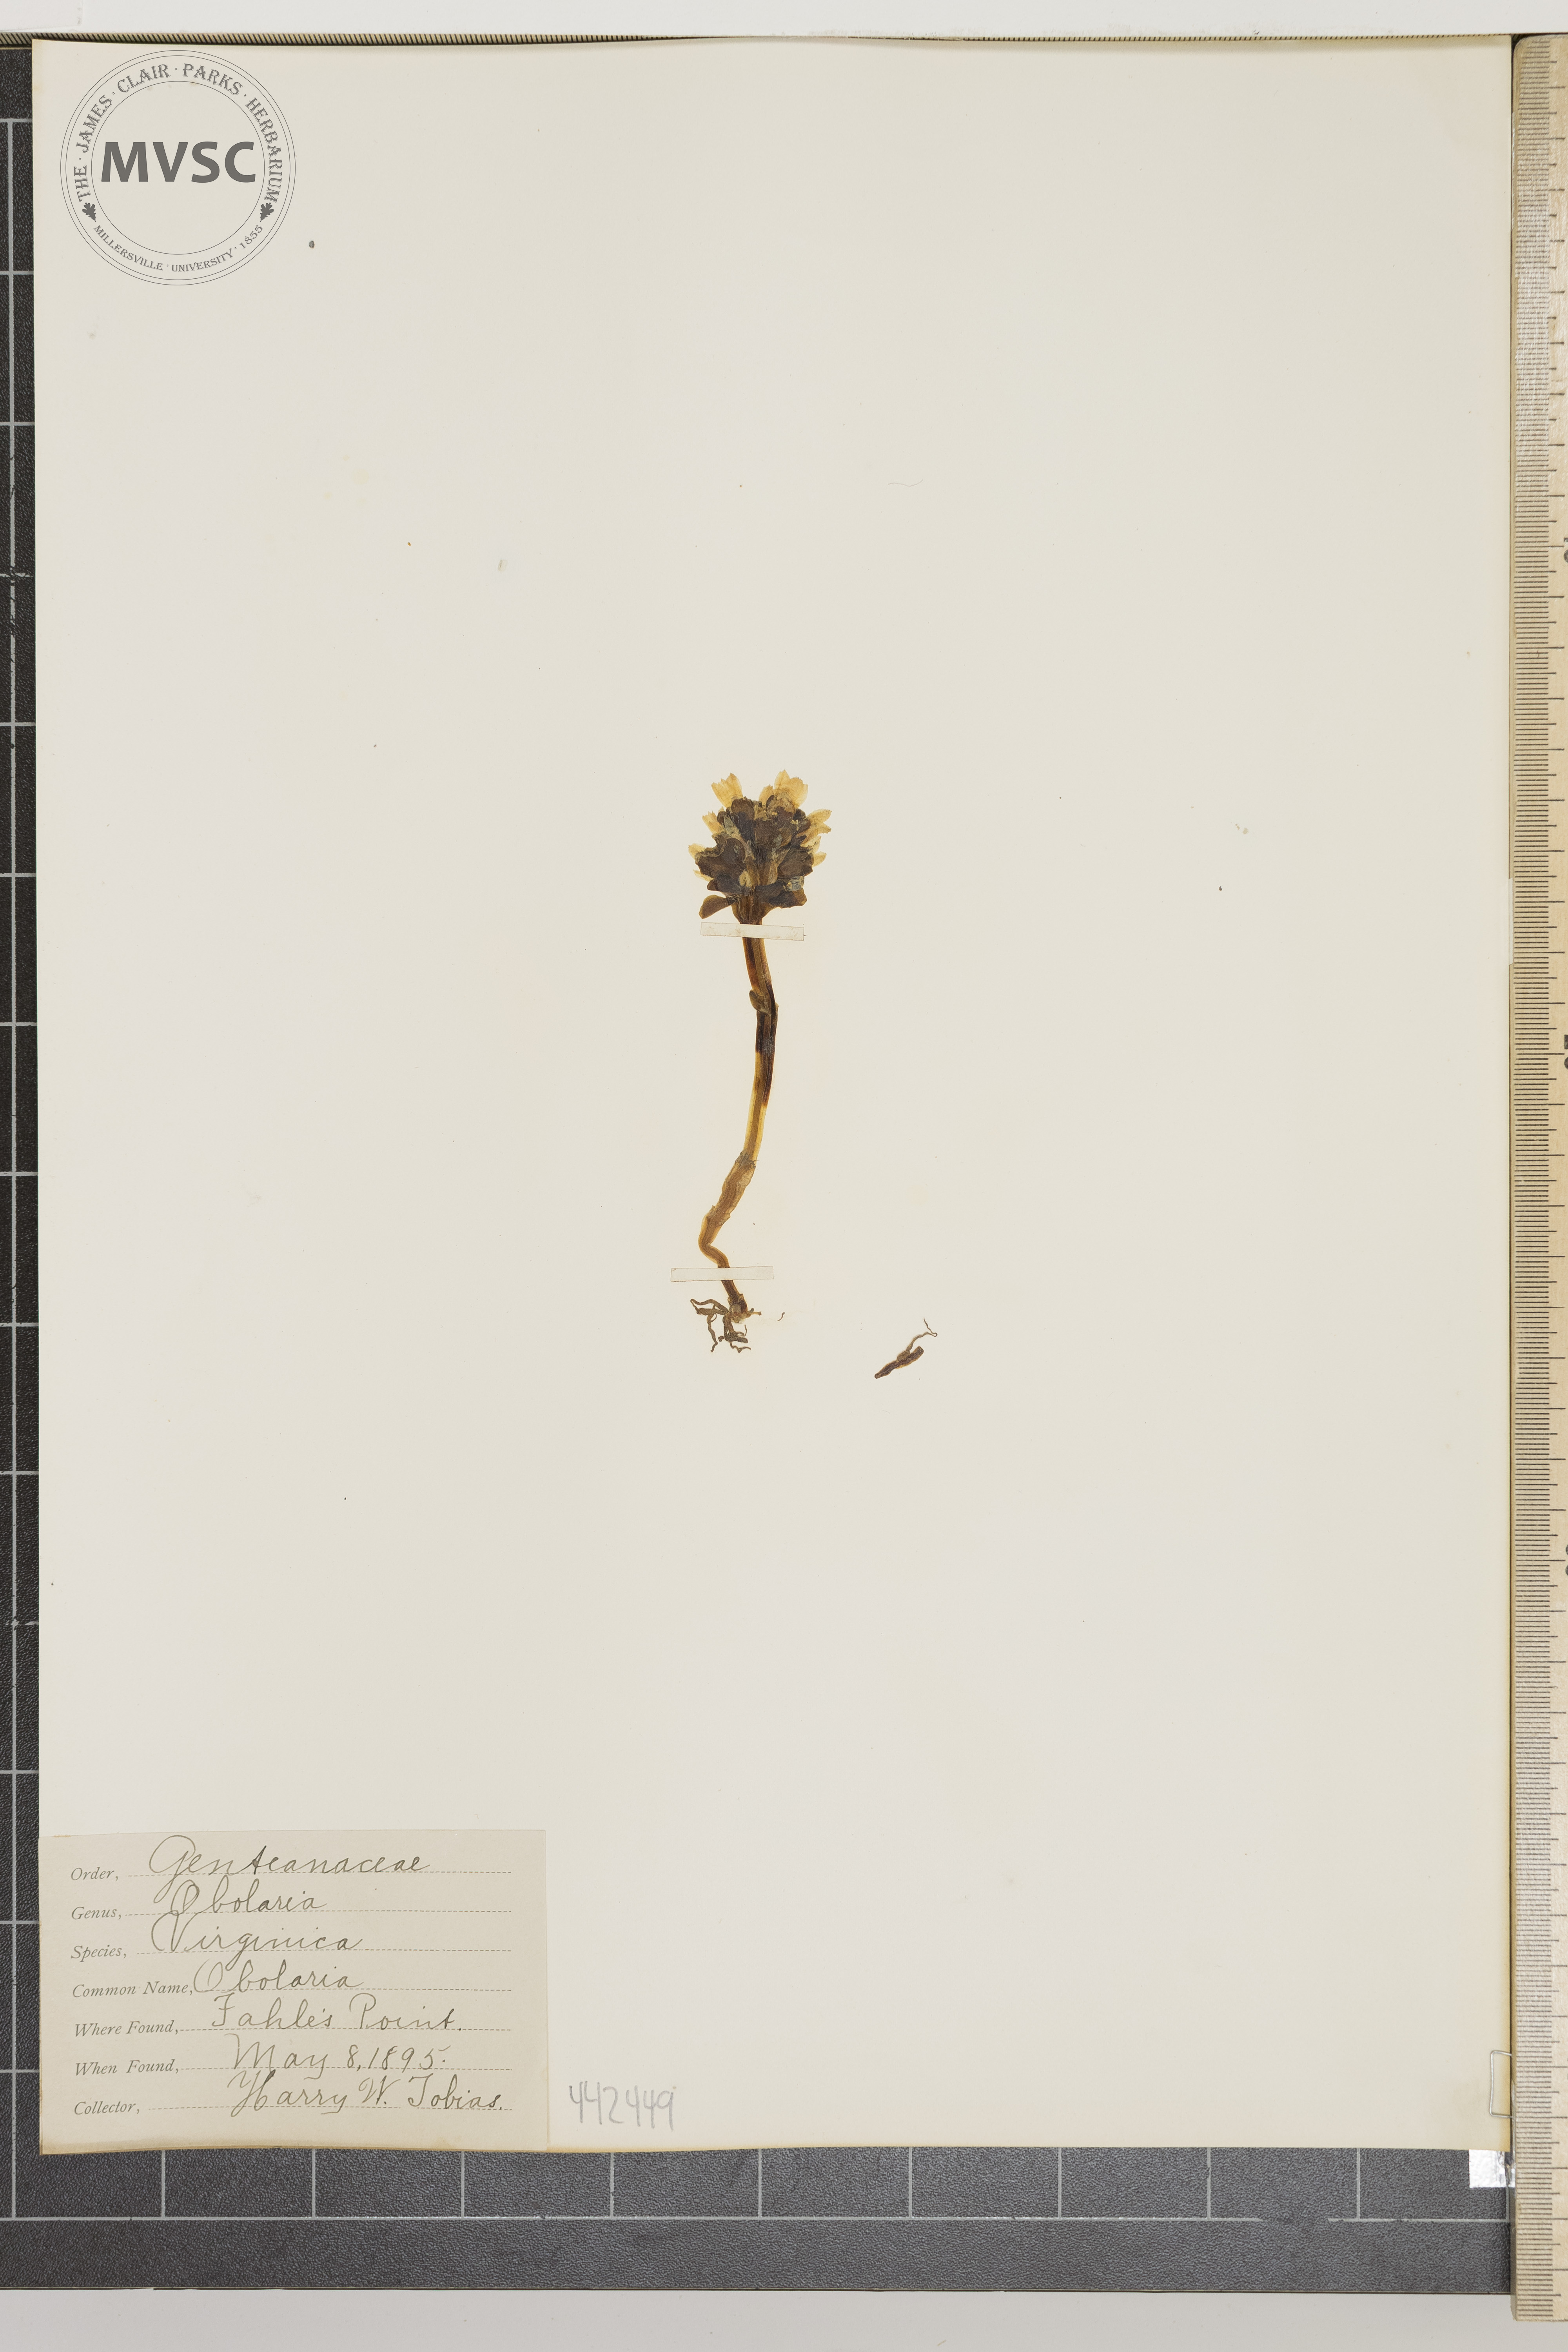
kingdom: Plantae
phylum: Tracheophyta
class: Magnoliopsida
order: Gentianales
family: Gentianaceae
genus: Obolaria
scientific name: Obolaria virginica
